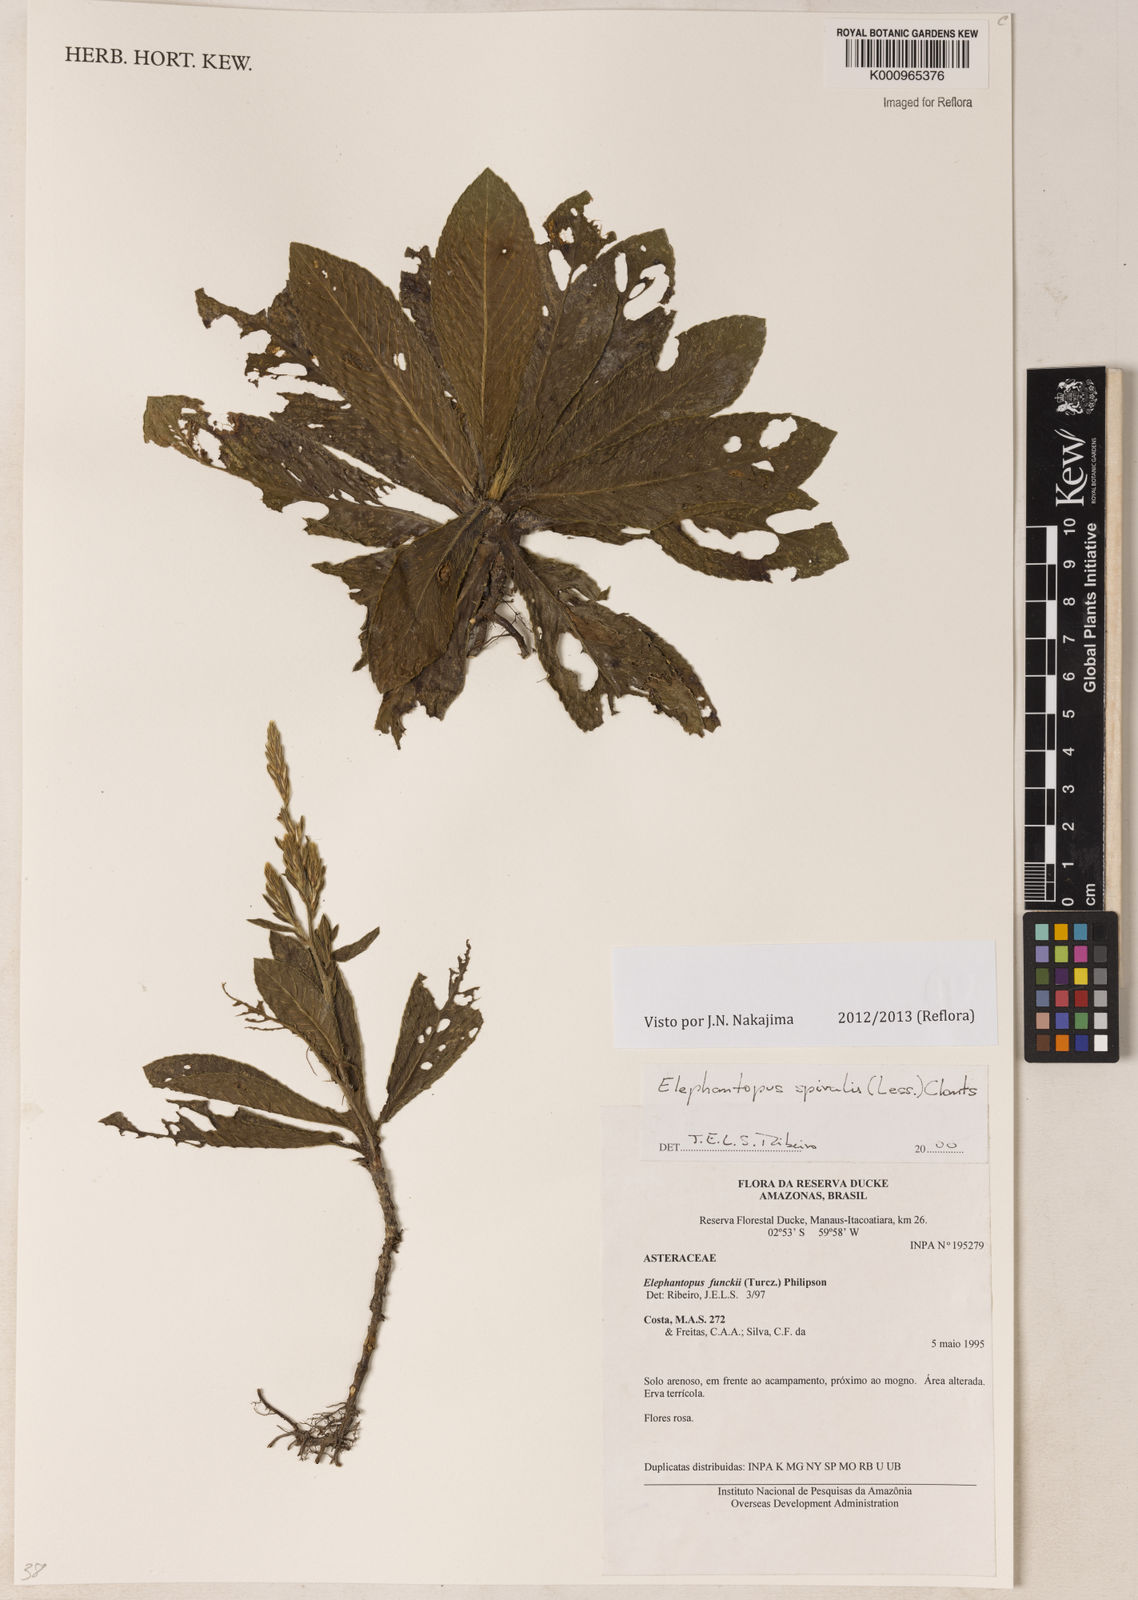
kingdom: Plantae
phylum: Tracheophyta
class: Magnoliopsida
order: Asterales
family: Asteraceae
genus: Pseudelephantopus
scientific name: Pseudelephantopus spiralis
